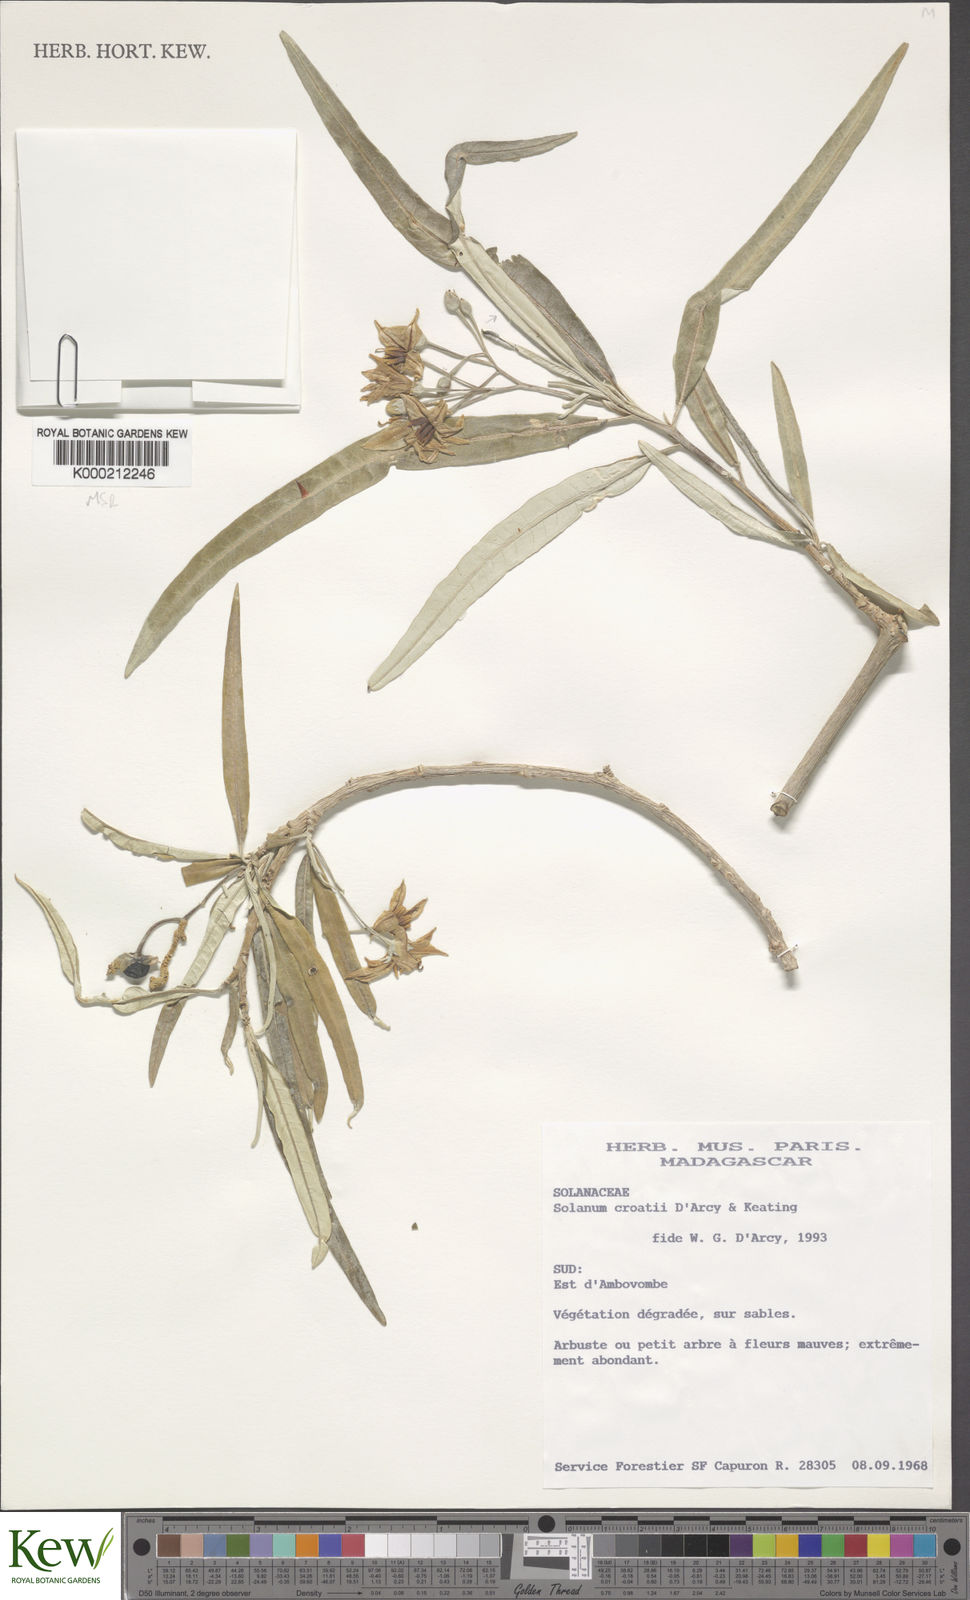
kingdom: Plantae
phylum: Tracheophyta
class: Magnoliopsida
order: Solanales
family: Solanaceae
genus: Solanum
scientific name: Solanum croatii
